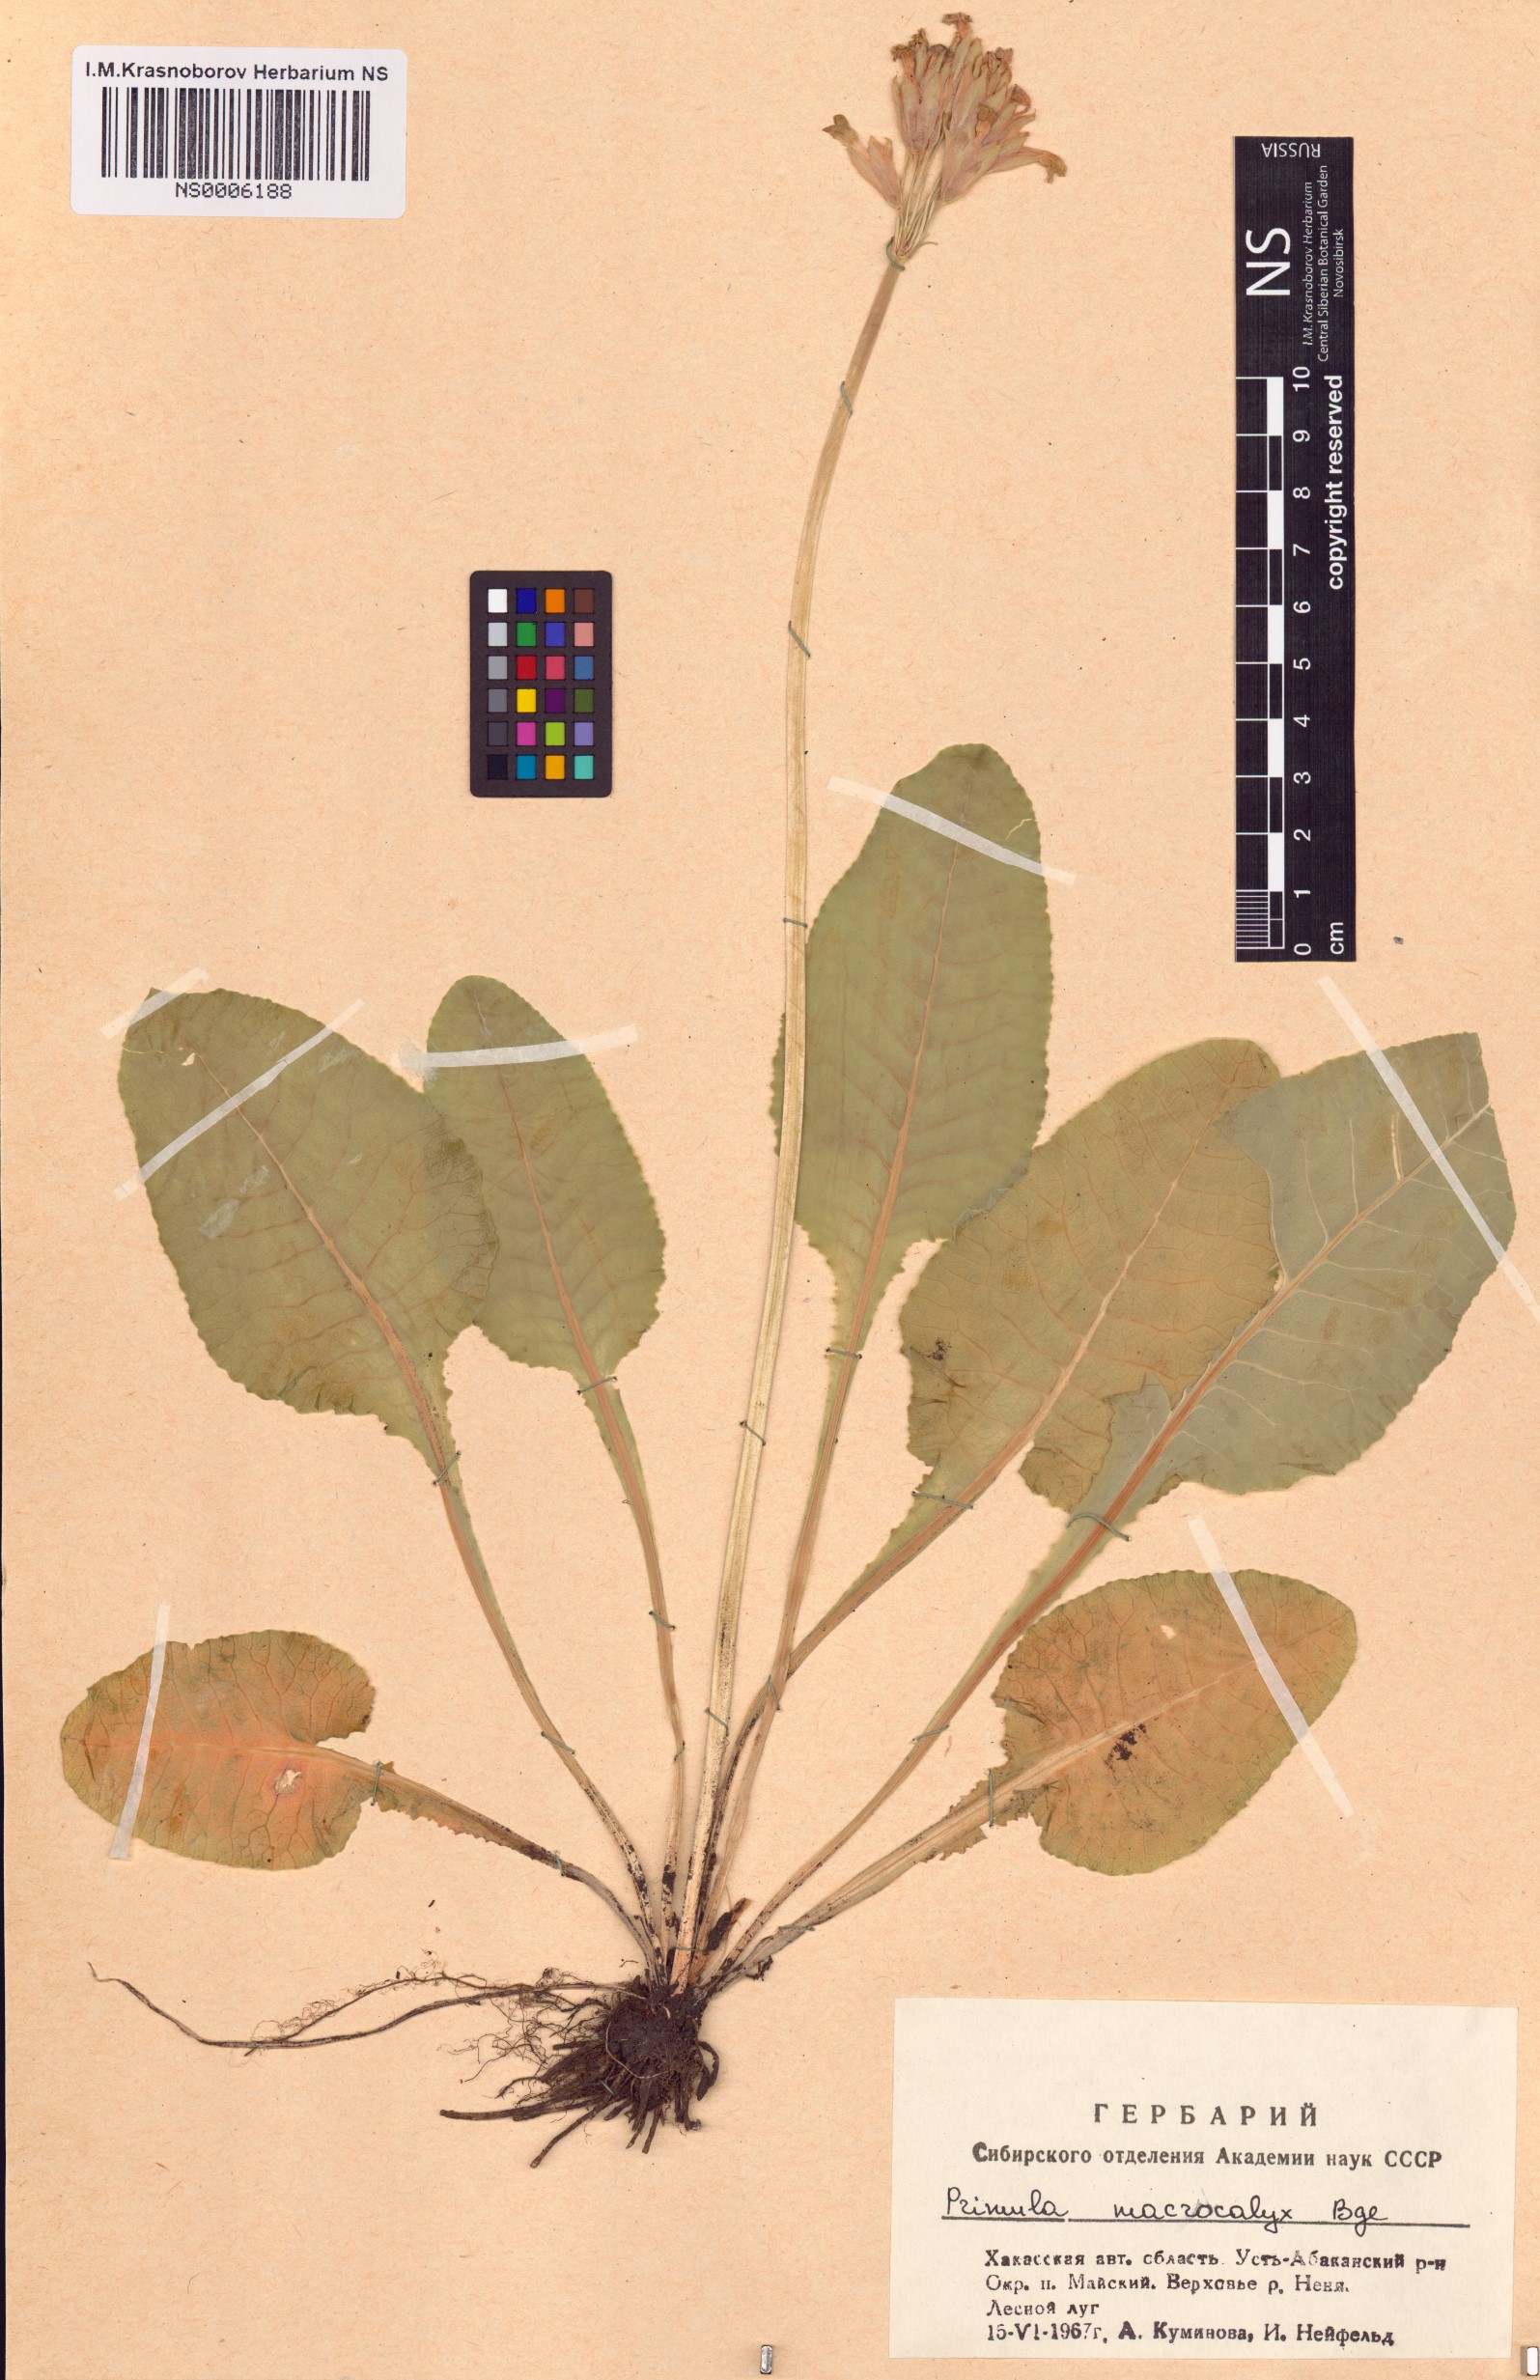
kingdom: Plantae
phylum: Tracheophyta
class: Magnoliopsida
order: Ericales
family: Primulaceae
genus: Primula
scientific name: Primula veris
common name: Cowslip
